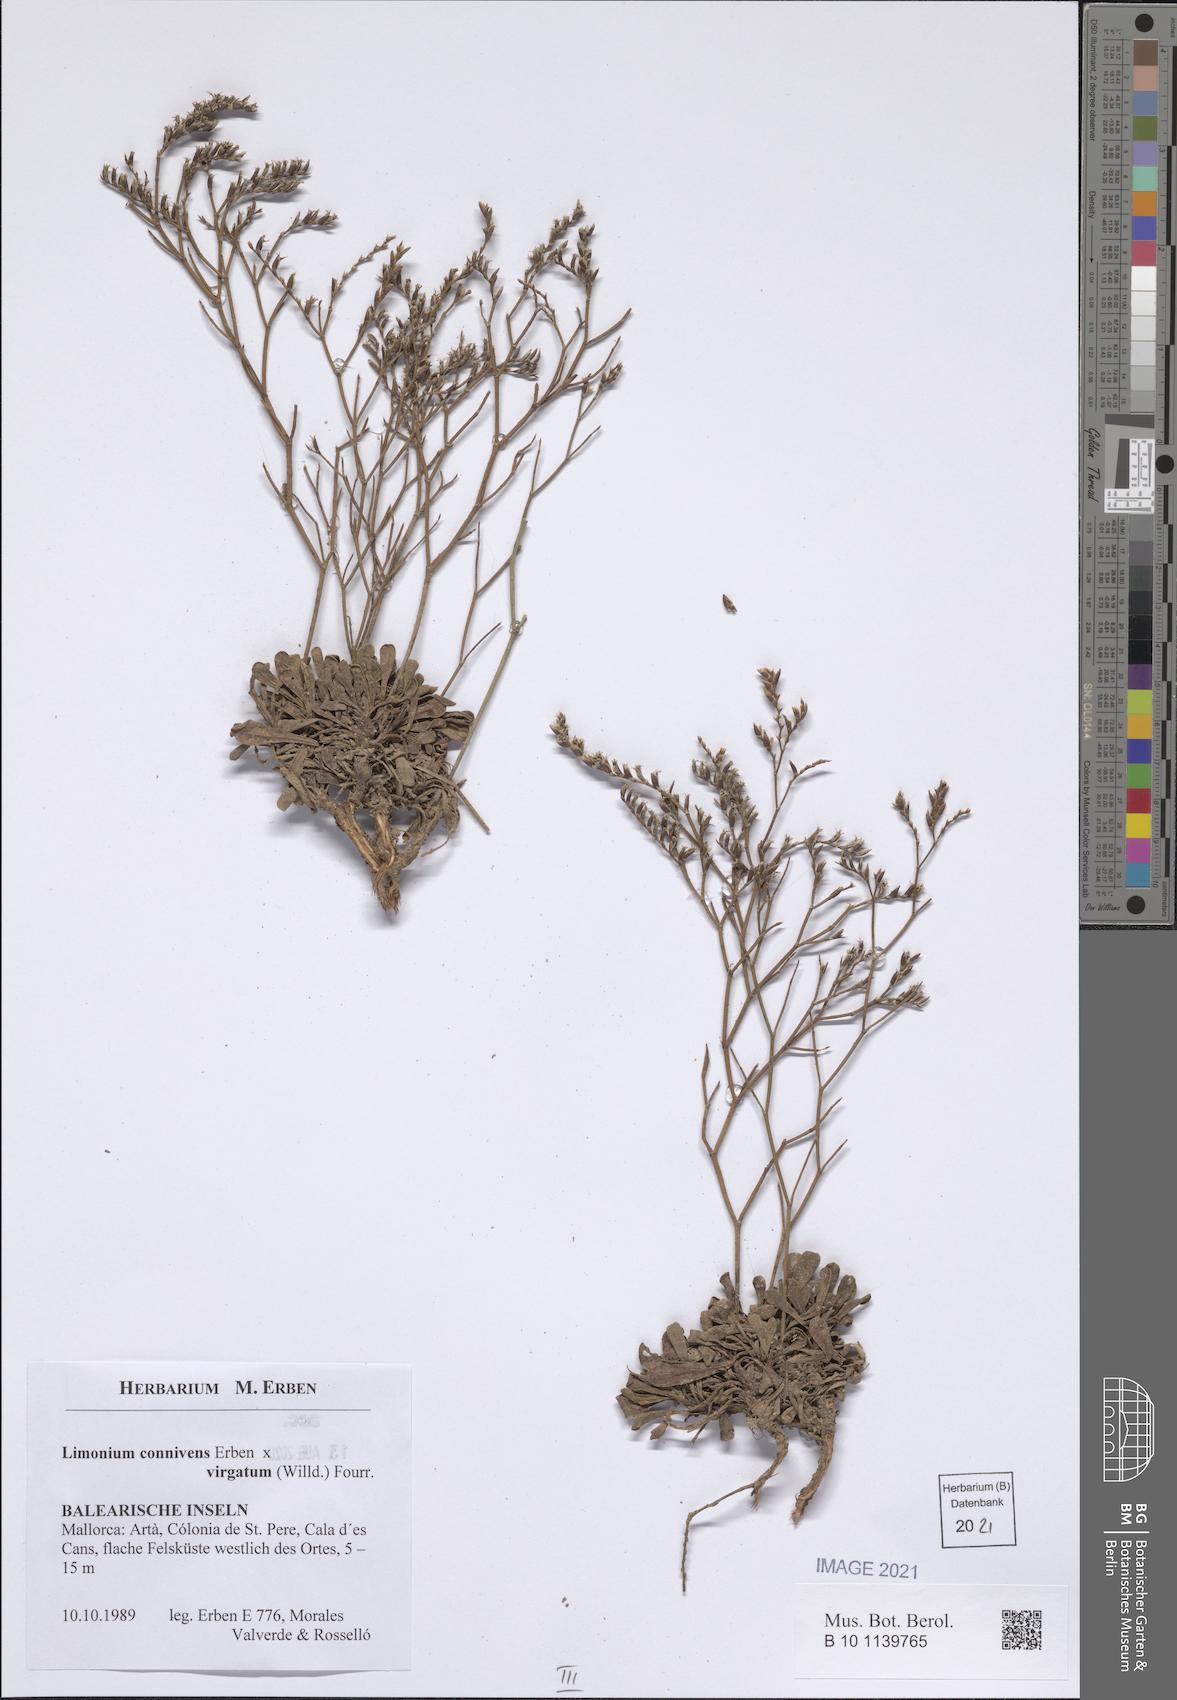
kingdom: Plantae
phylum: Tracheophyta
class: Magnoliopsida
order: Caryophyllales
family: Plumbaginaceae
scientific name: Plumbaginaceae
